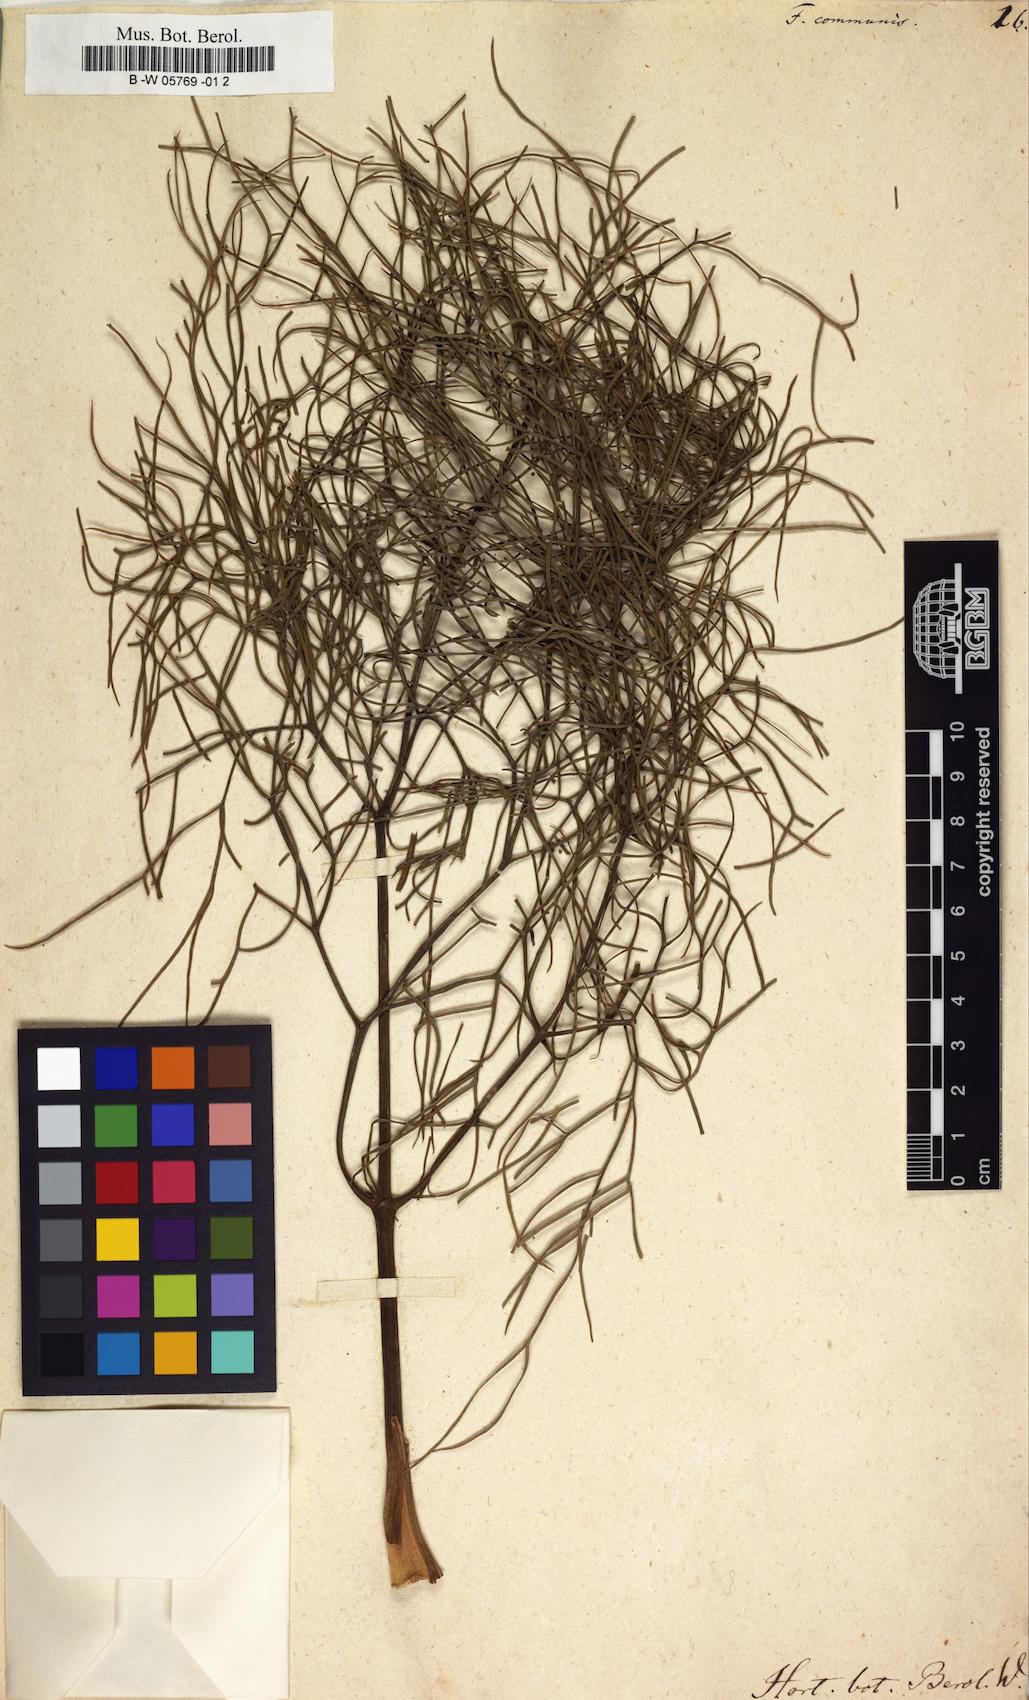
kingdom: Plantae
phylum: Tracheophyta
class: Magnoliopsida
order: Apiales
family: Apiaceae
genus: Ferula
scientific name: Ferula communis
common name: Giant fennel
